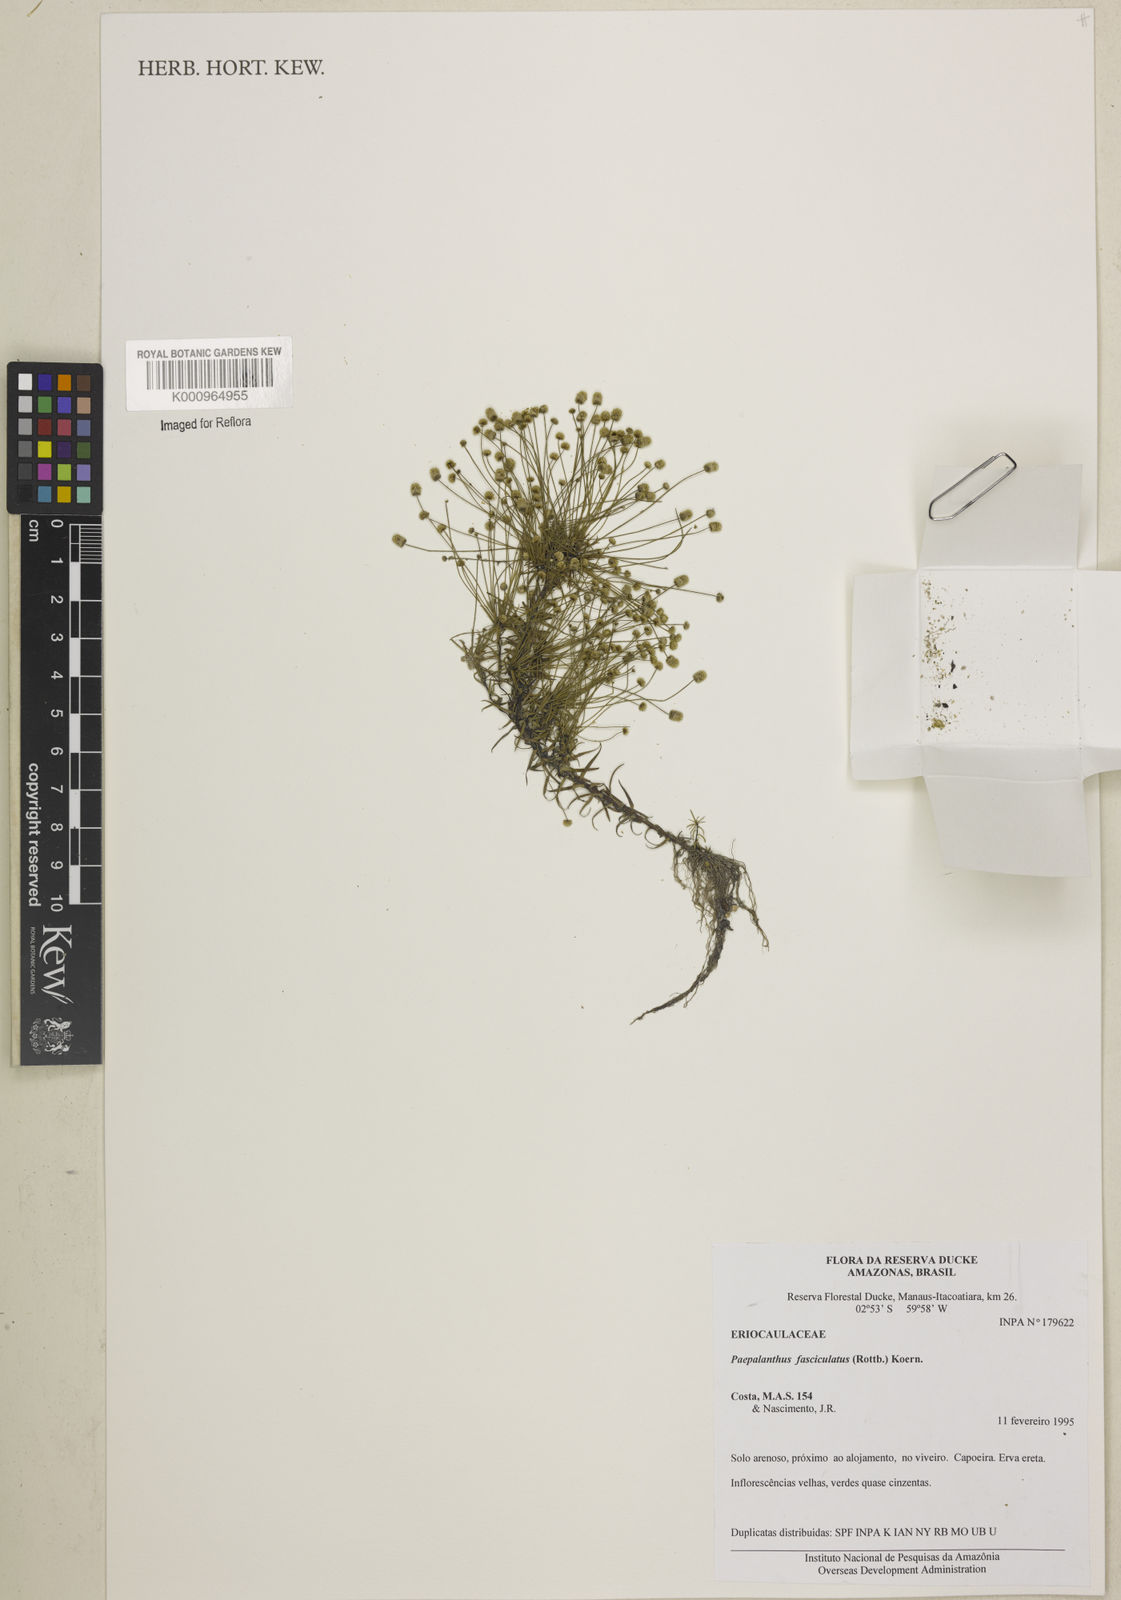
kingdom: Plantae
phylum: Tracheophyta
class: Liliopsida
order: Poales
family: Eriocaulaceae
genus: Paepalanthus
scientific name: Paepalanthus fasciculatus
